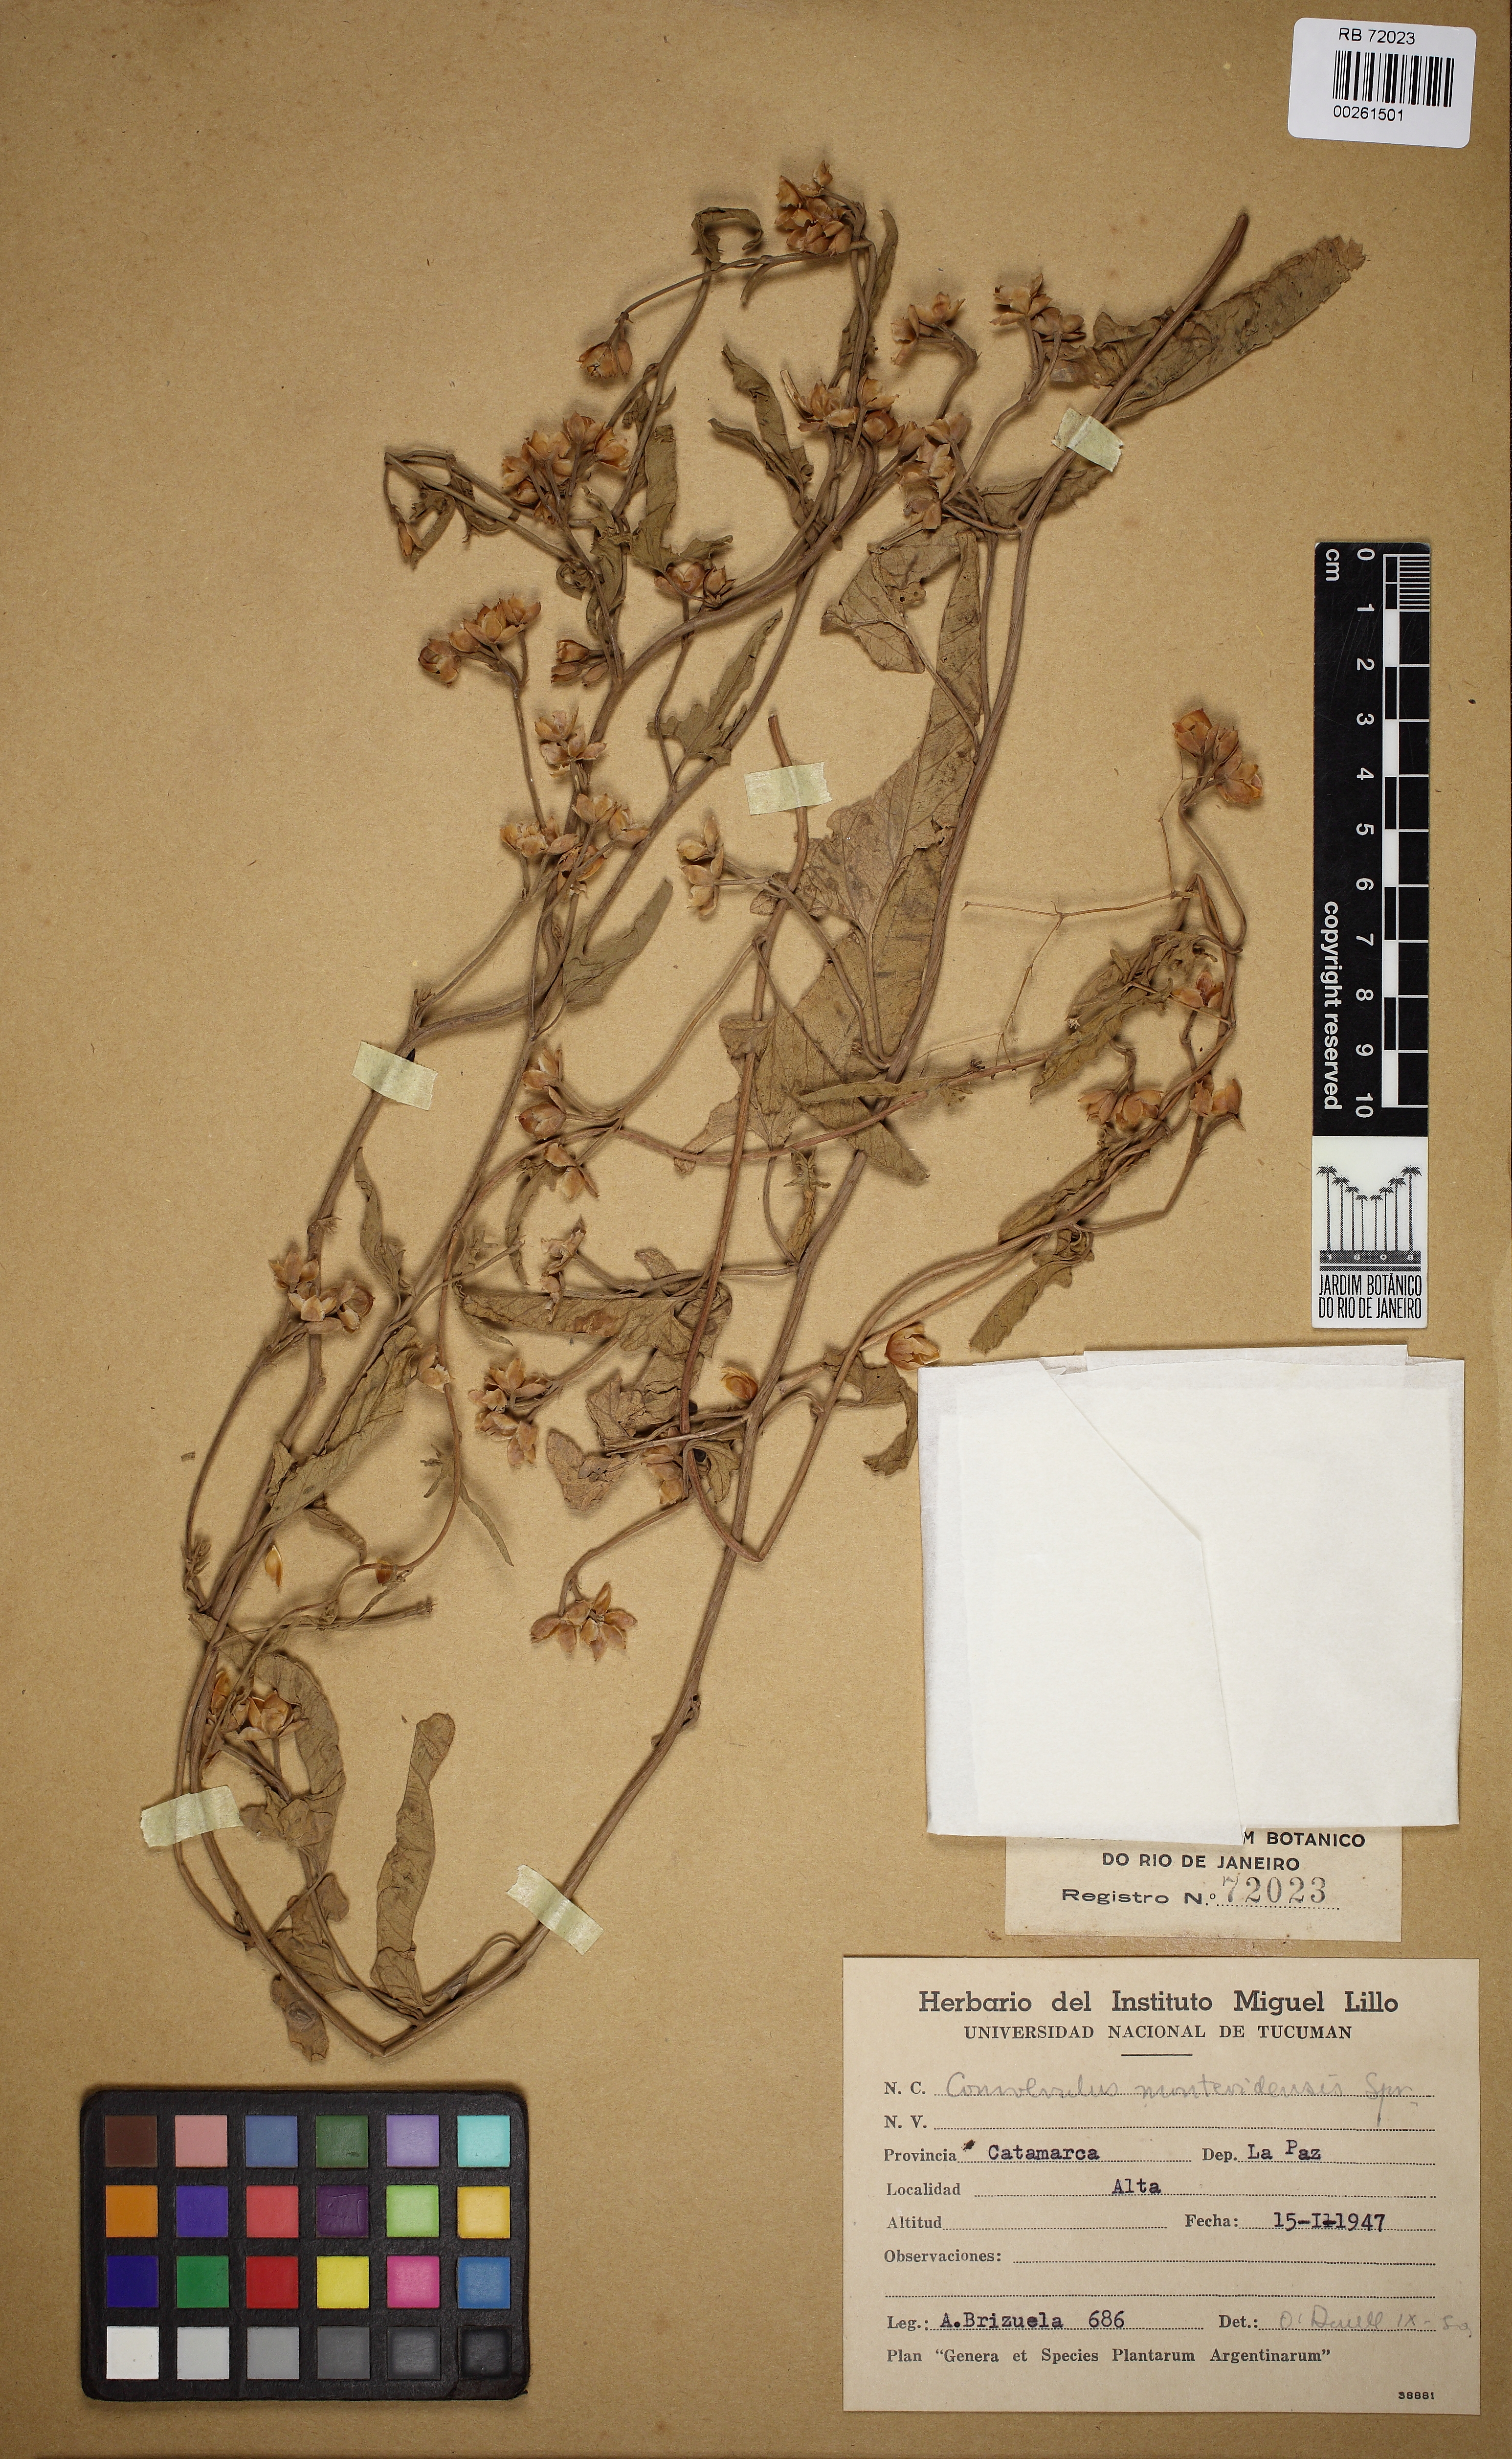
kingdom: Plantae
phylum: Tracheophyta
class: Magnoliopsida
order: Solanales
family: Convolvulaceae
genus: Convolvulus
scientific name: Convolvulus crenatifolius
